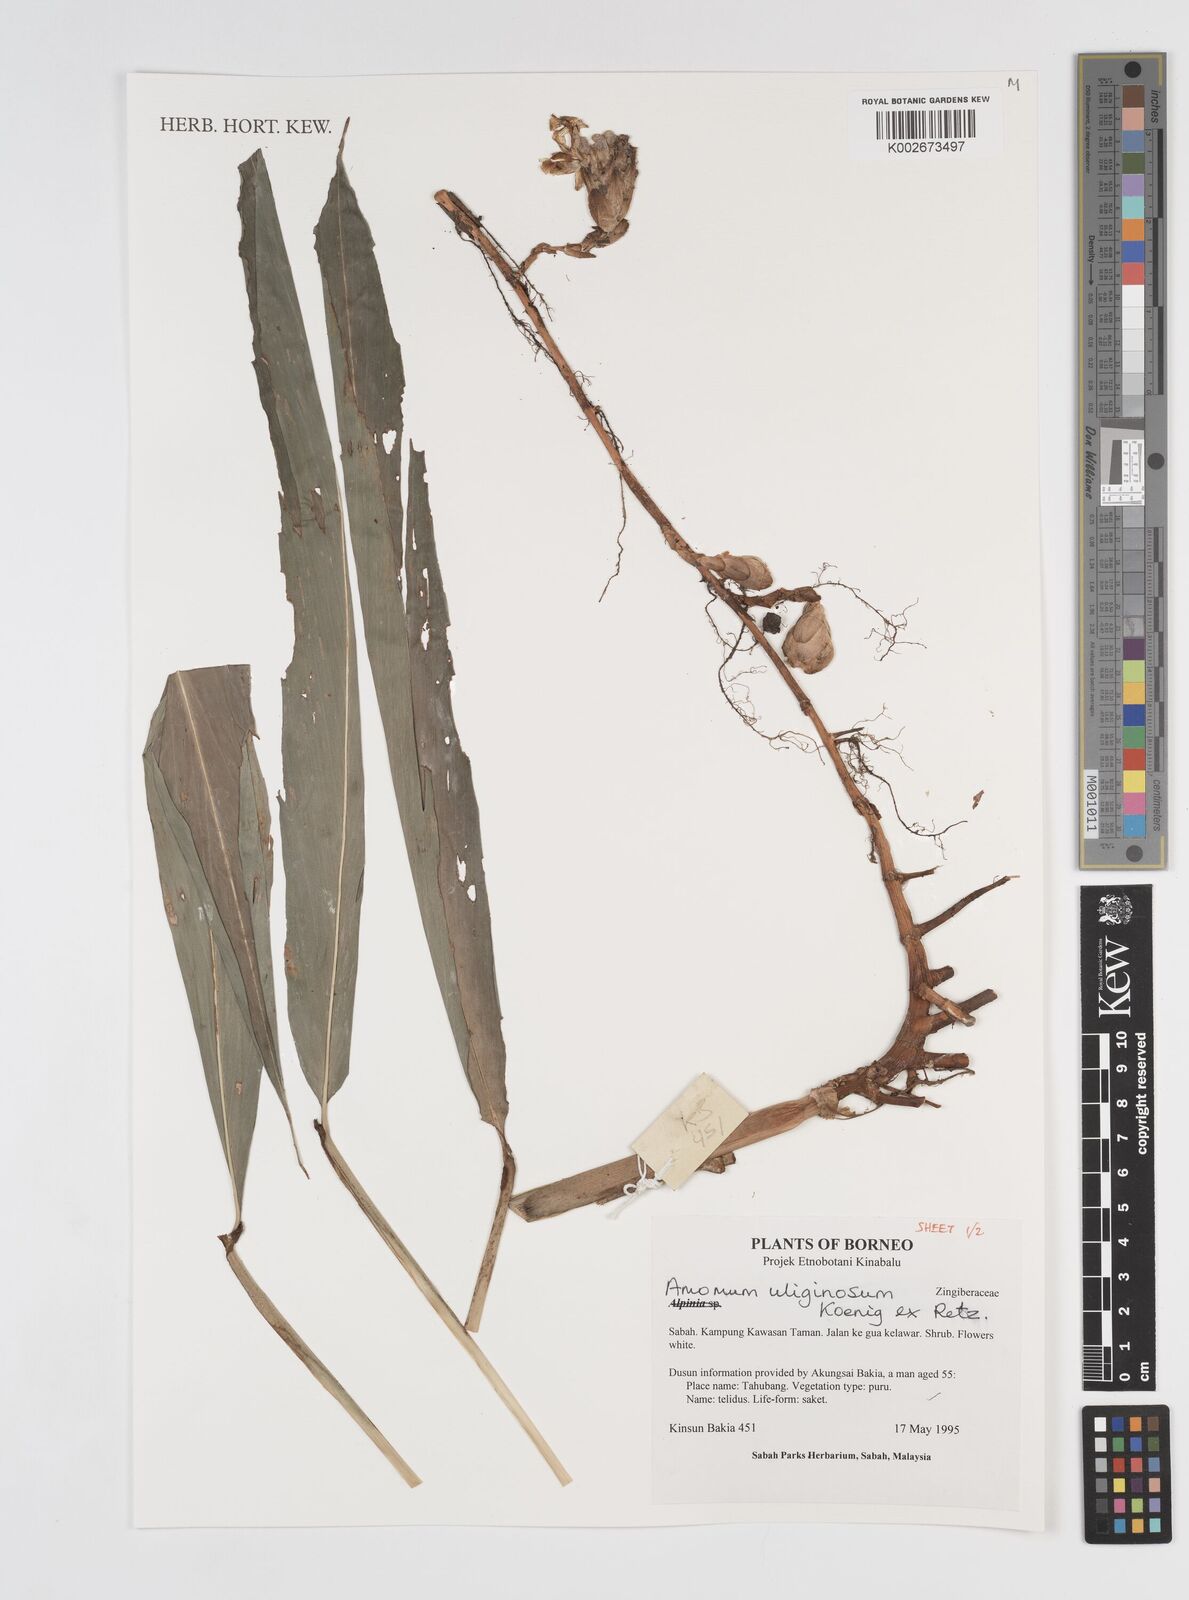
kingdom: Plantae
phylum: Tracheophyta
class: Liliopsida
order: Zingiberales
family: Zingiberaceae
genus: Wurfbainia
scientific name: Wurfbainia uliginosa
